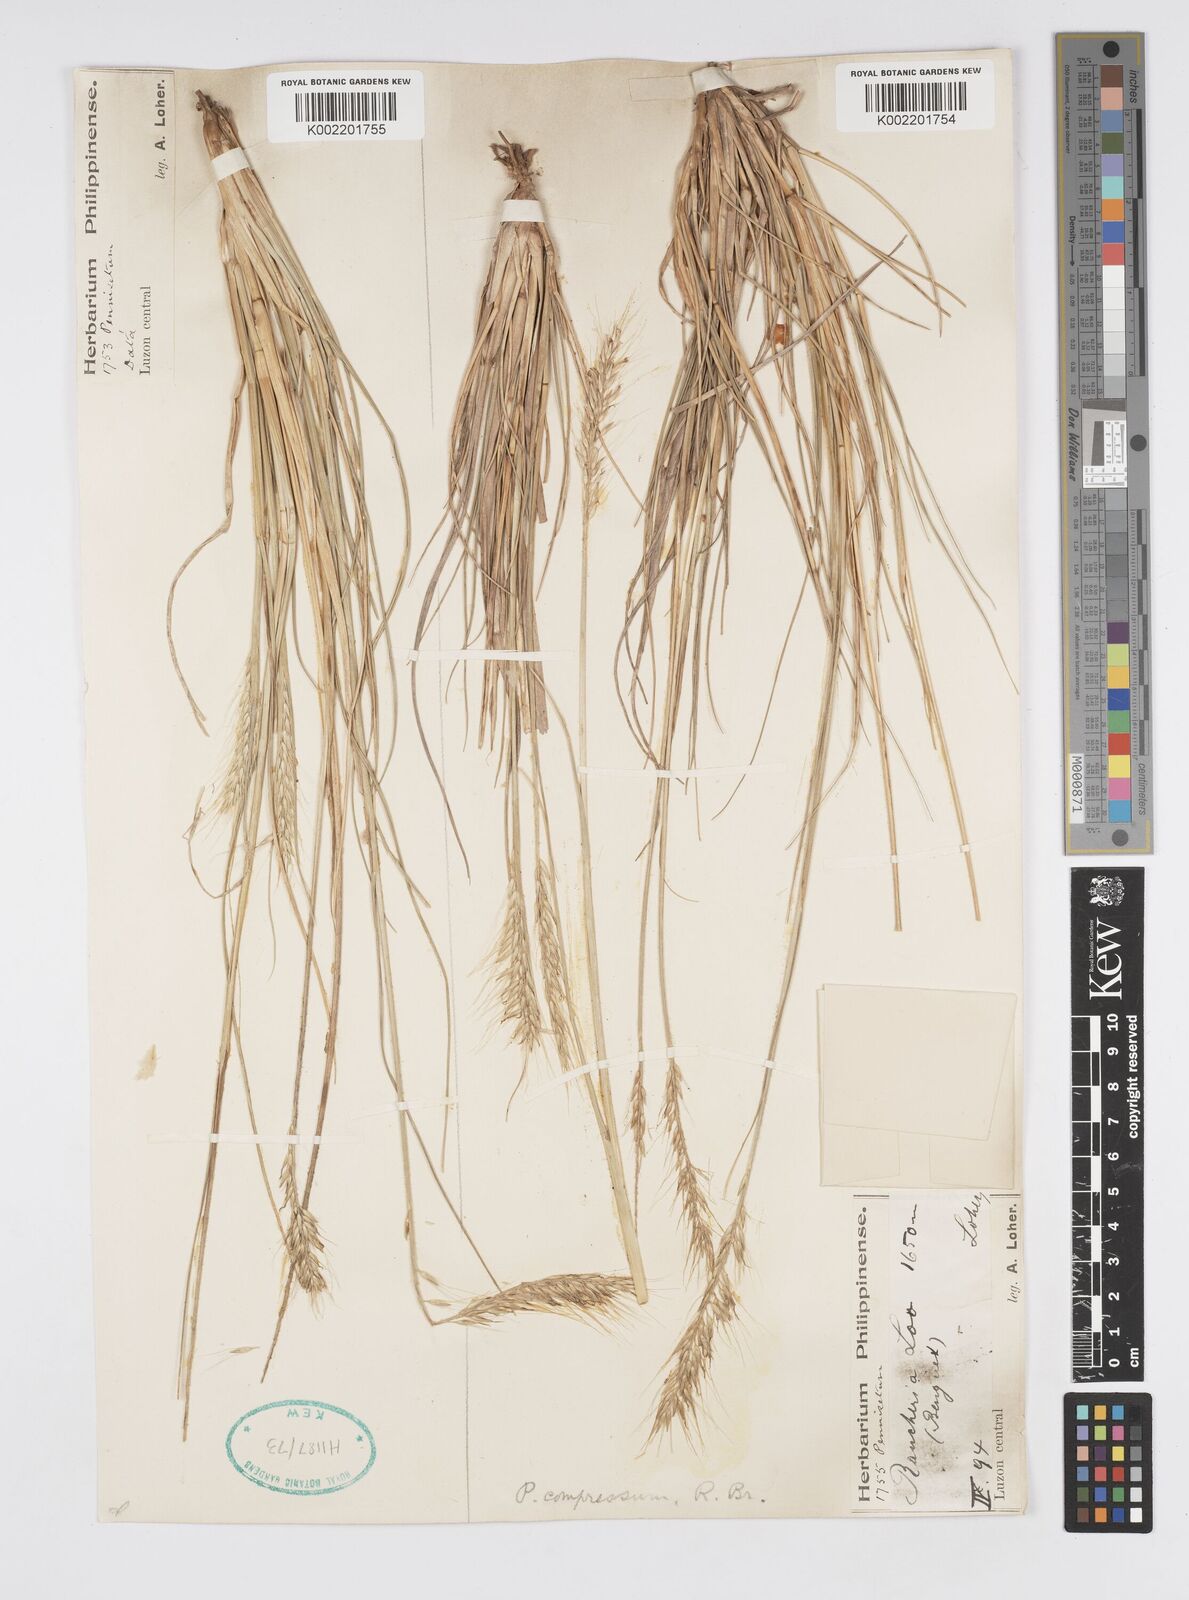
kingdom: Plantae
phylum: Tracheophyta
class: Liliopsida
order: Poales
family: Poaceae
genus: Cenchrus
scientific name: Cenchrus setosus
